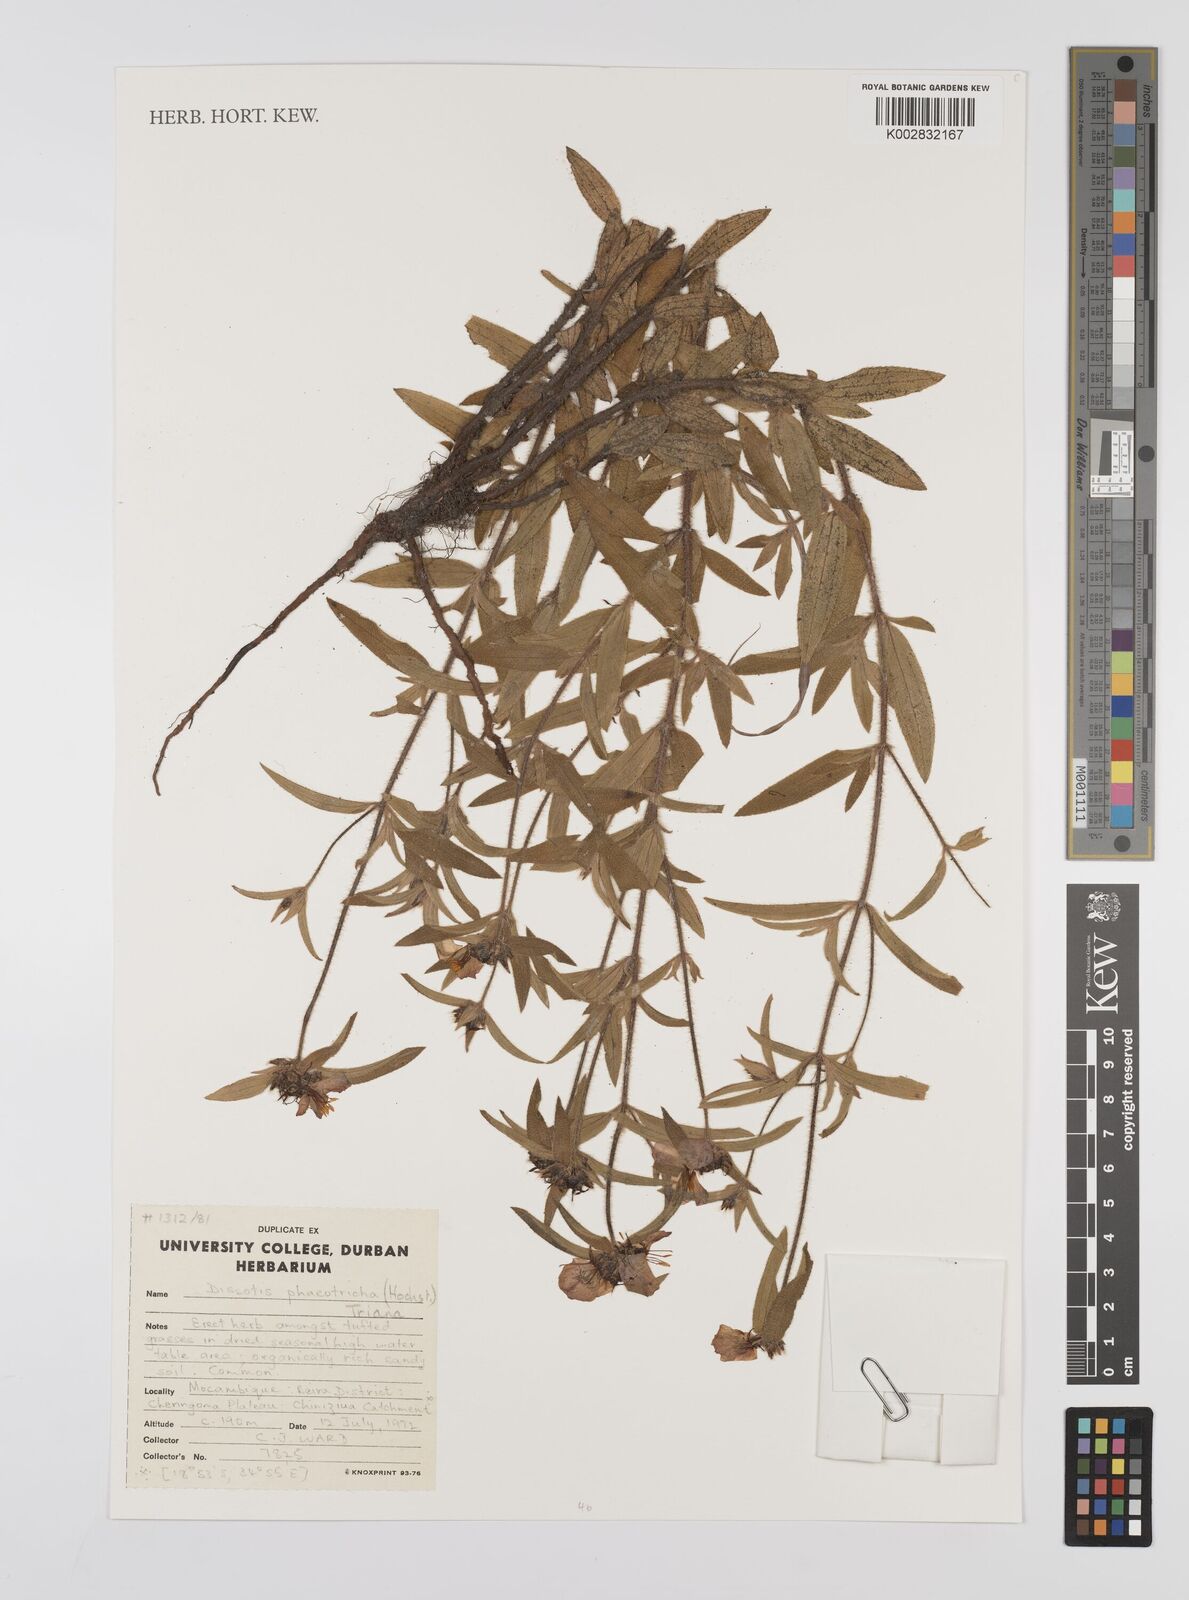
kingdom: Plantae
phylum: Tracheophyta
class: Magnoliopsida
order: Myrtales
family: Melastomataceae
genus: Antherotoma
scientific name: Antherotoma phaeotricha
